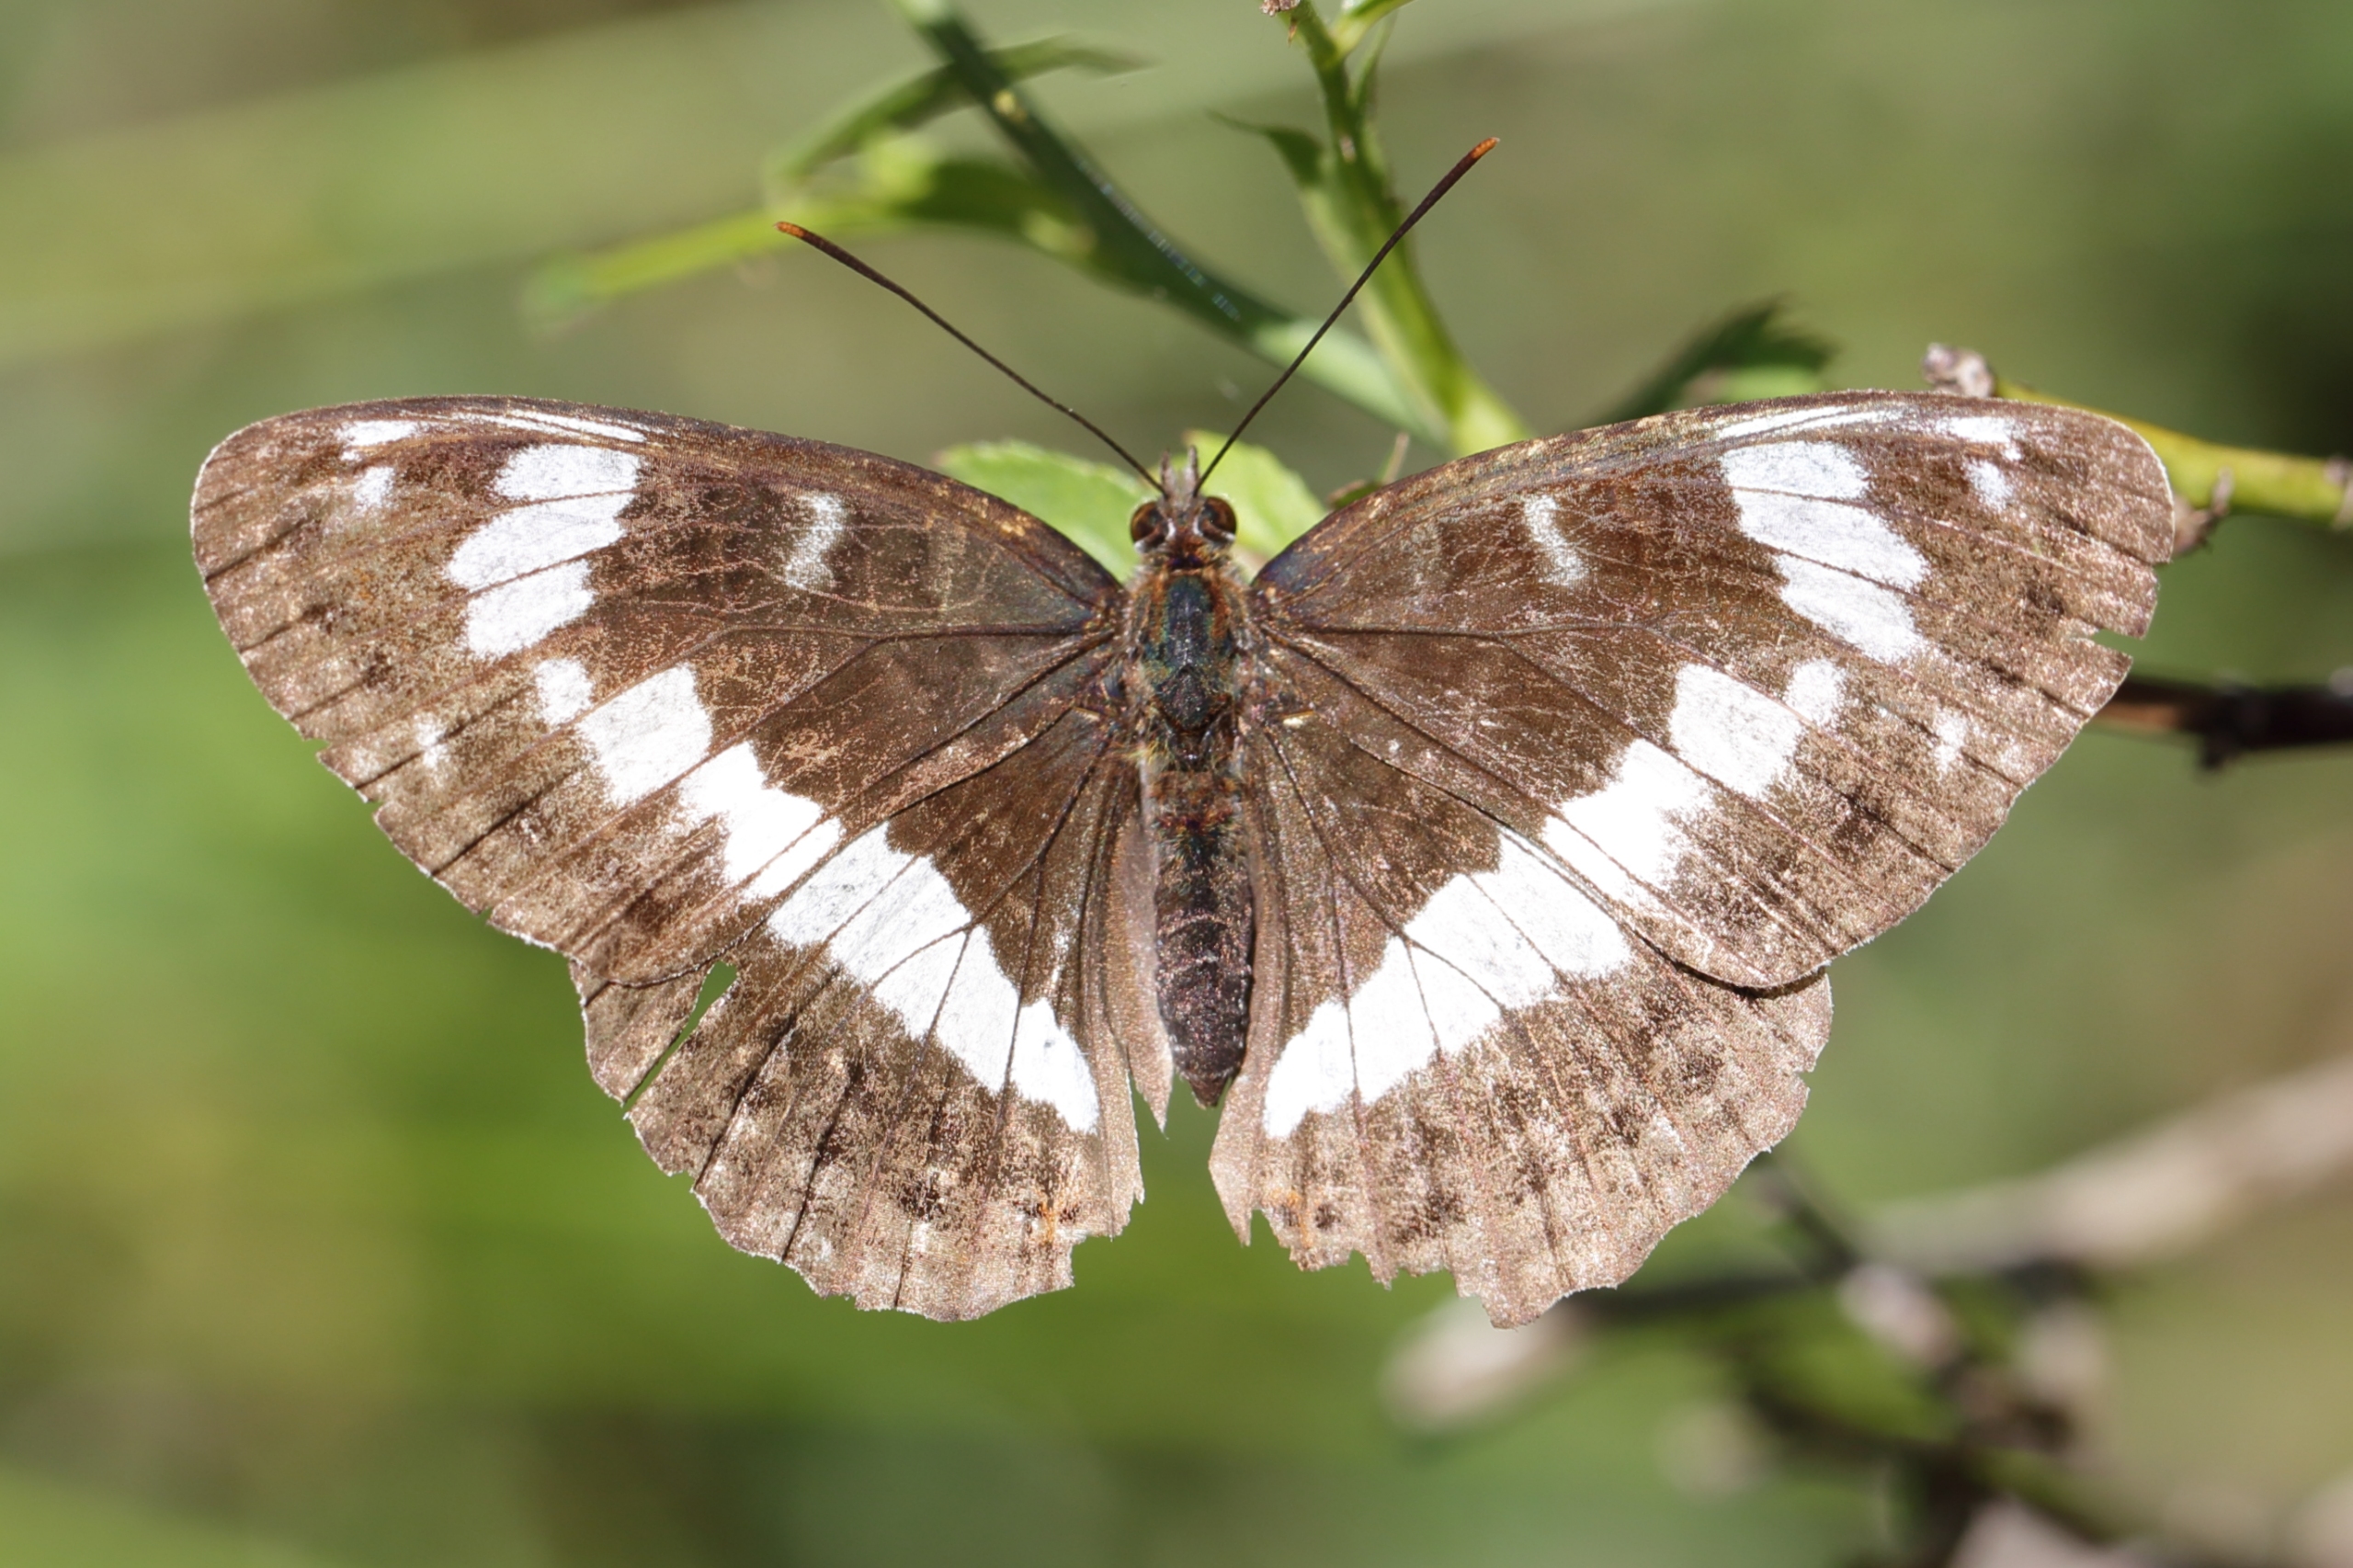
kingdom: Animalia
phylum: Arthropoda
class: Insecta
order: Lepidoptera
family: Nymphalidae
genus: Ladoga
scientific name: Ladoga camilla
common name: Hvid admiral
